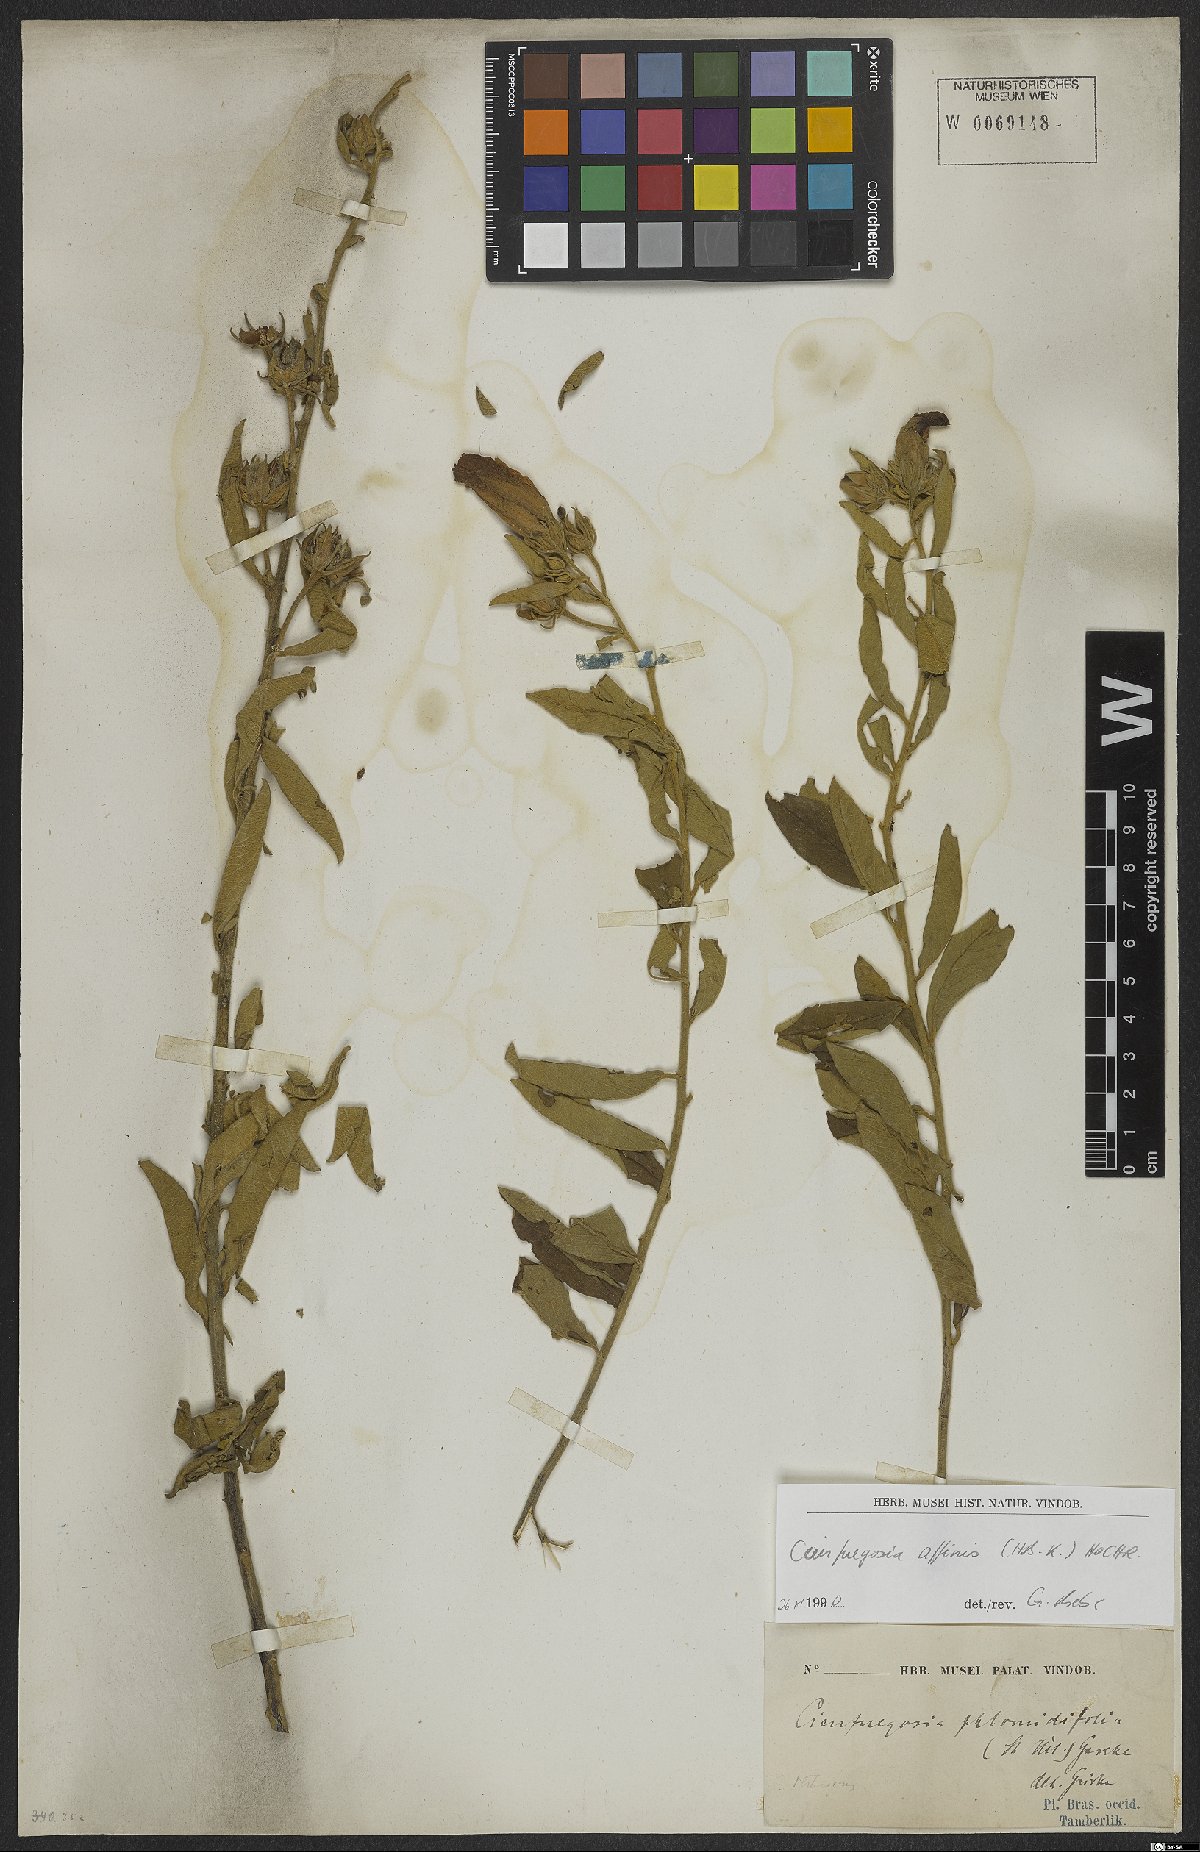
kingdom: Plantae
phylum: Tracheophyta
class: Magnoliopsida
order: Malvales
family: Malvaceae
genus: Cienfuegosia
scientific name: Cienfuegosia affinis
